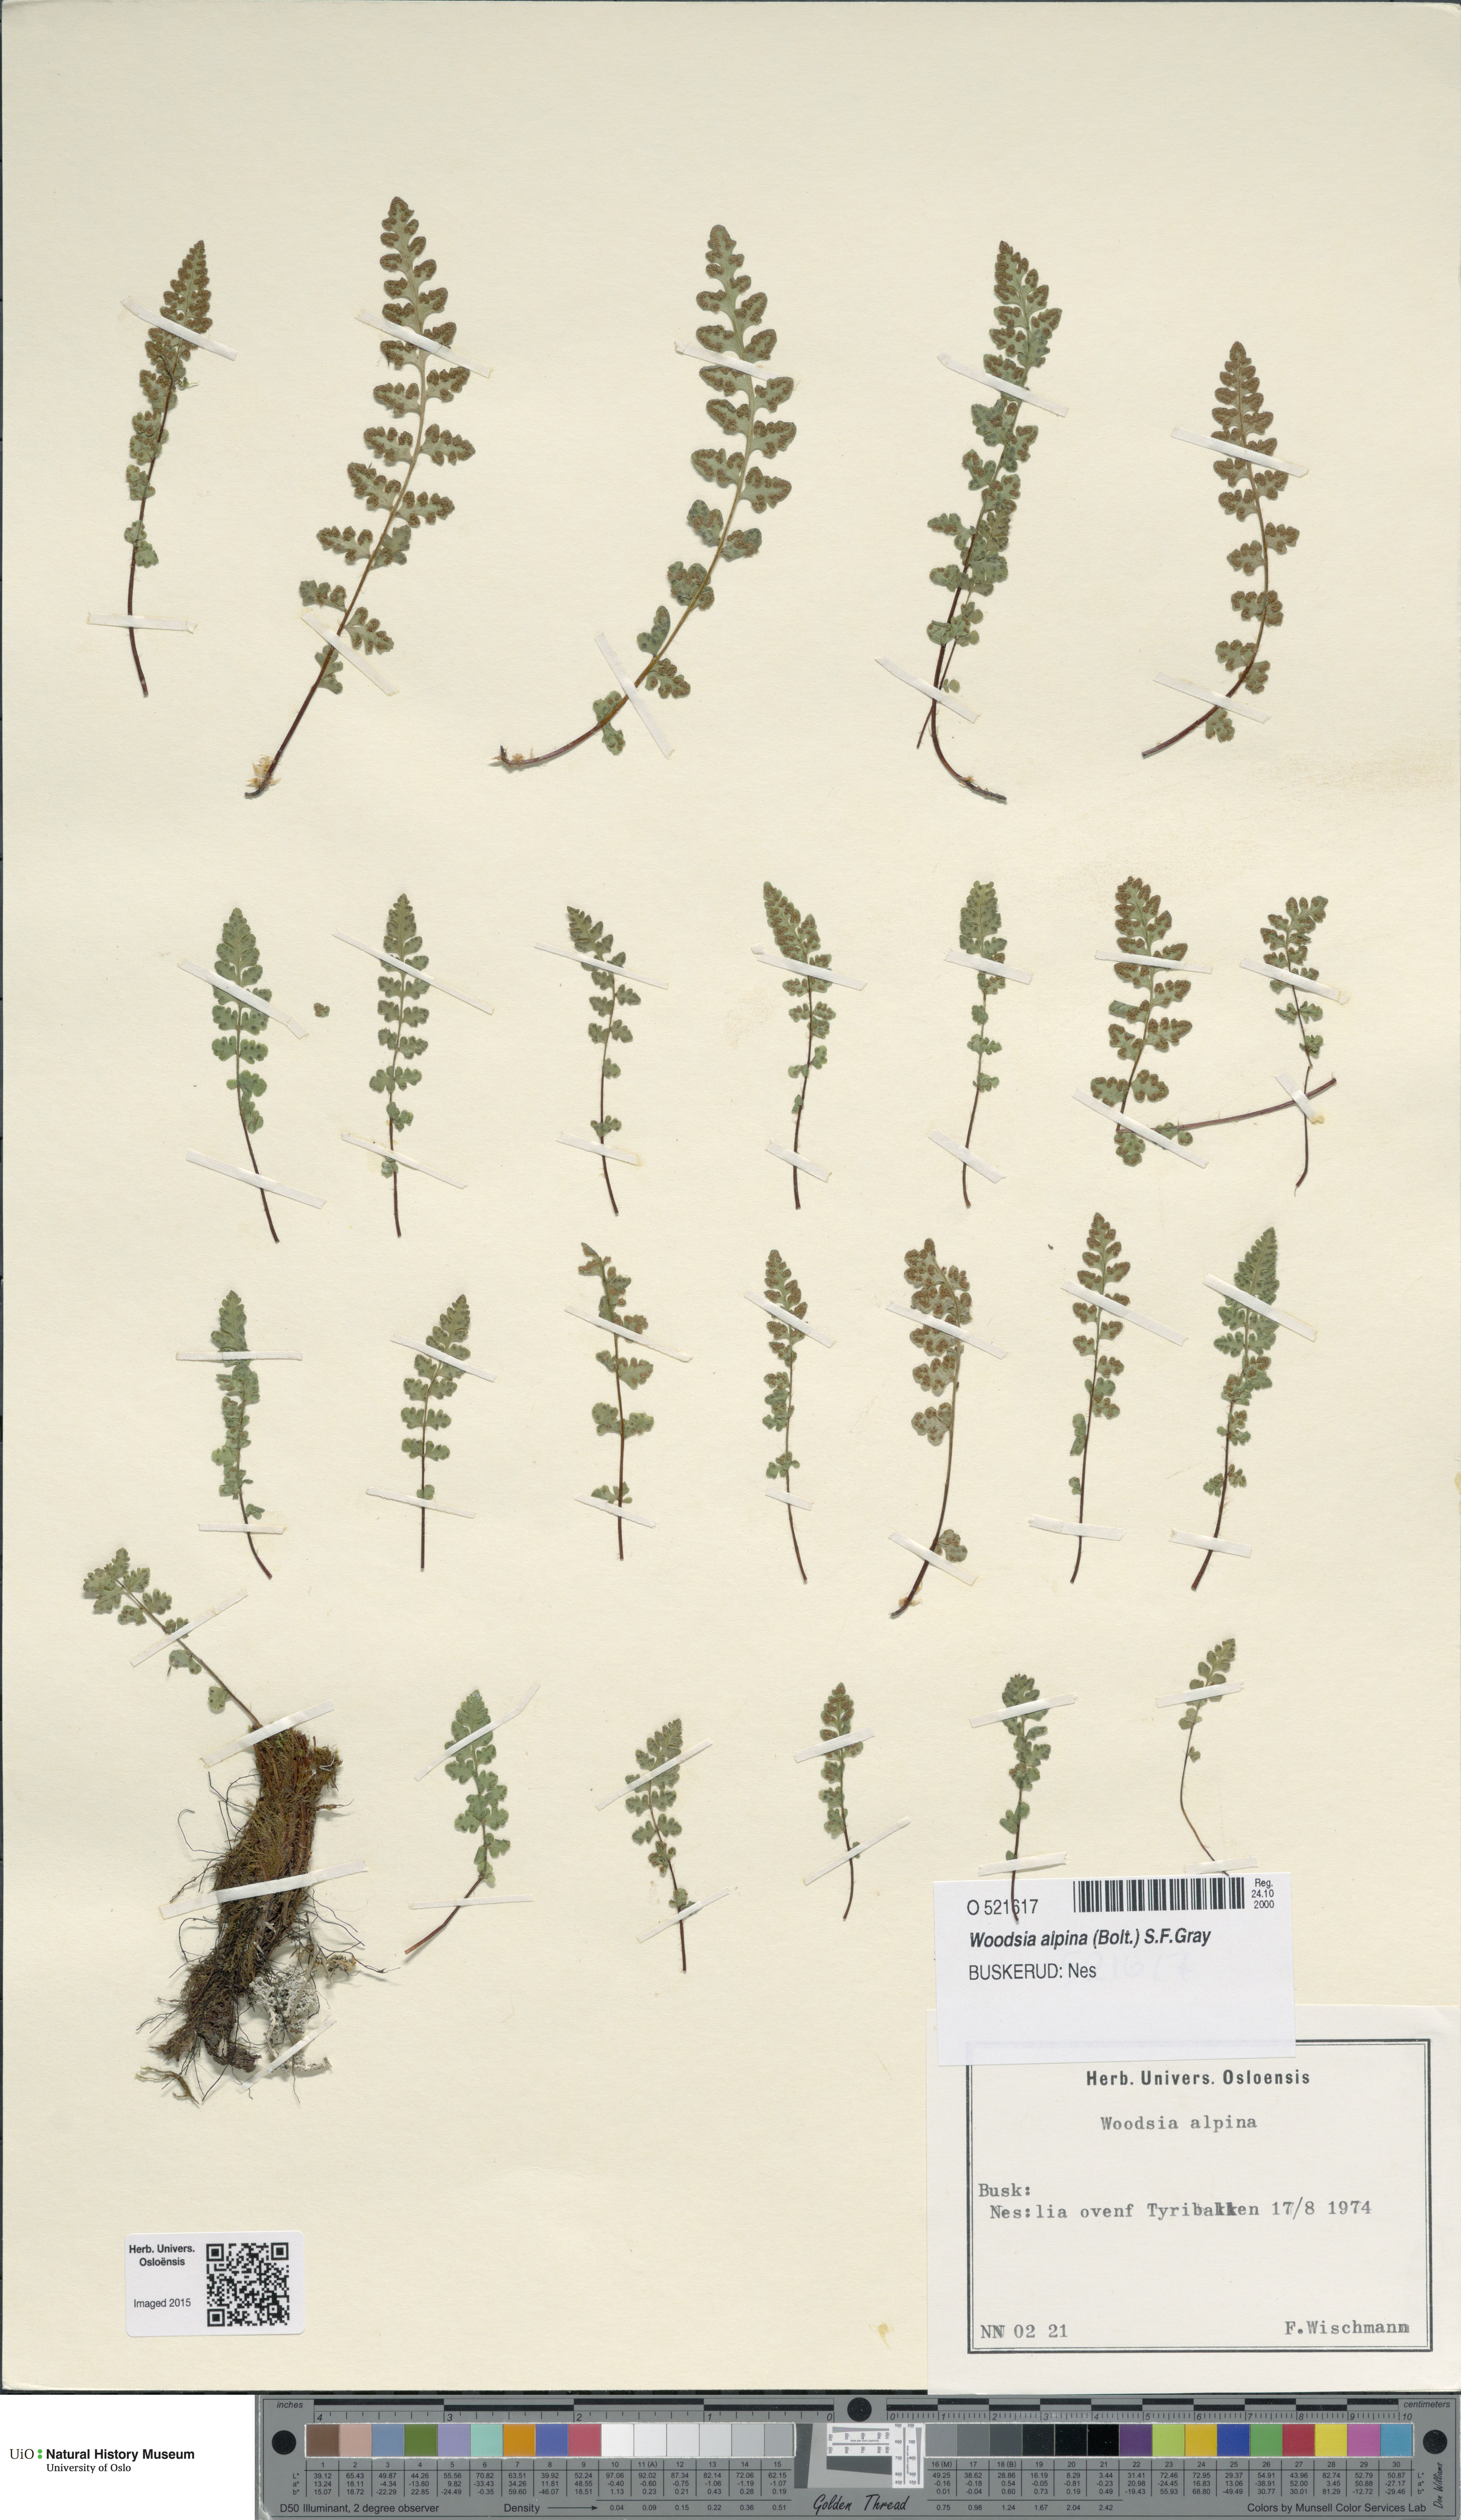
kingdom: Plantae
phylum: Tracheophyta
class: Polypodiopsida
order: Polypodiales
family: Woodsiaceae
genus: Woodsia
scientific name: Woodsia alpina
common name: Alpine woodsia
